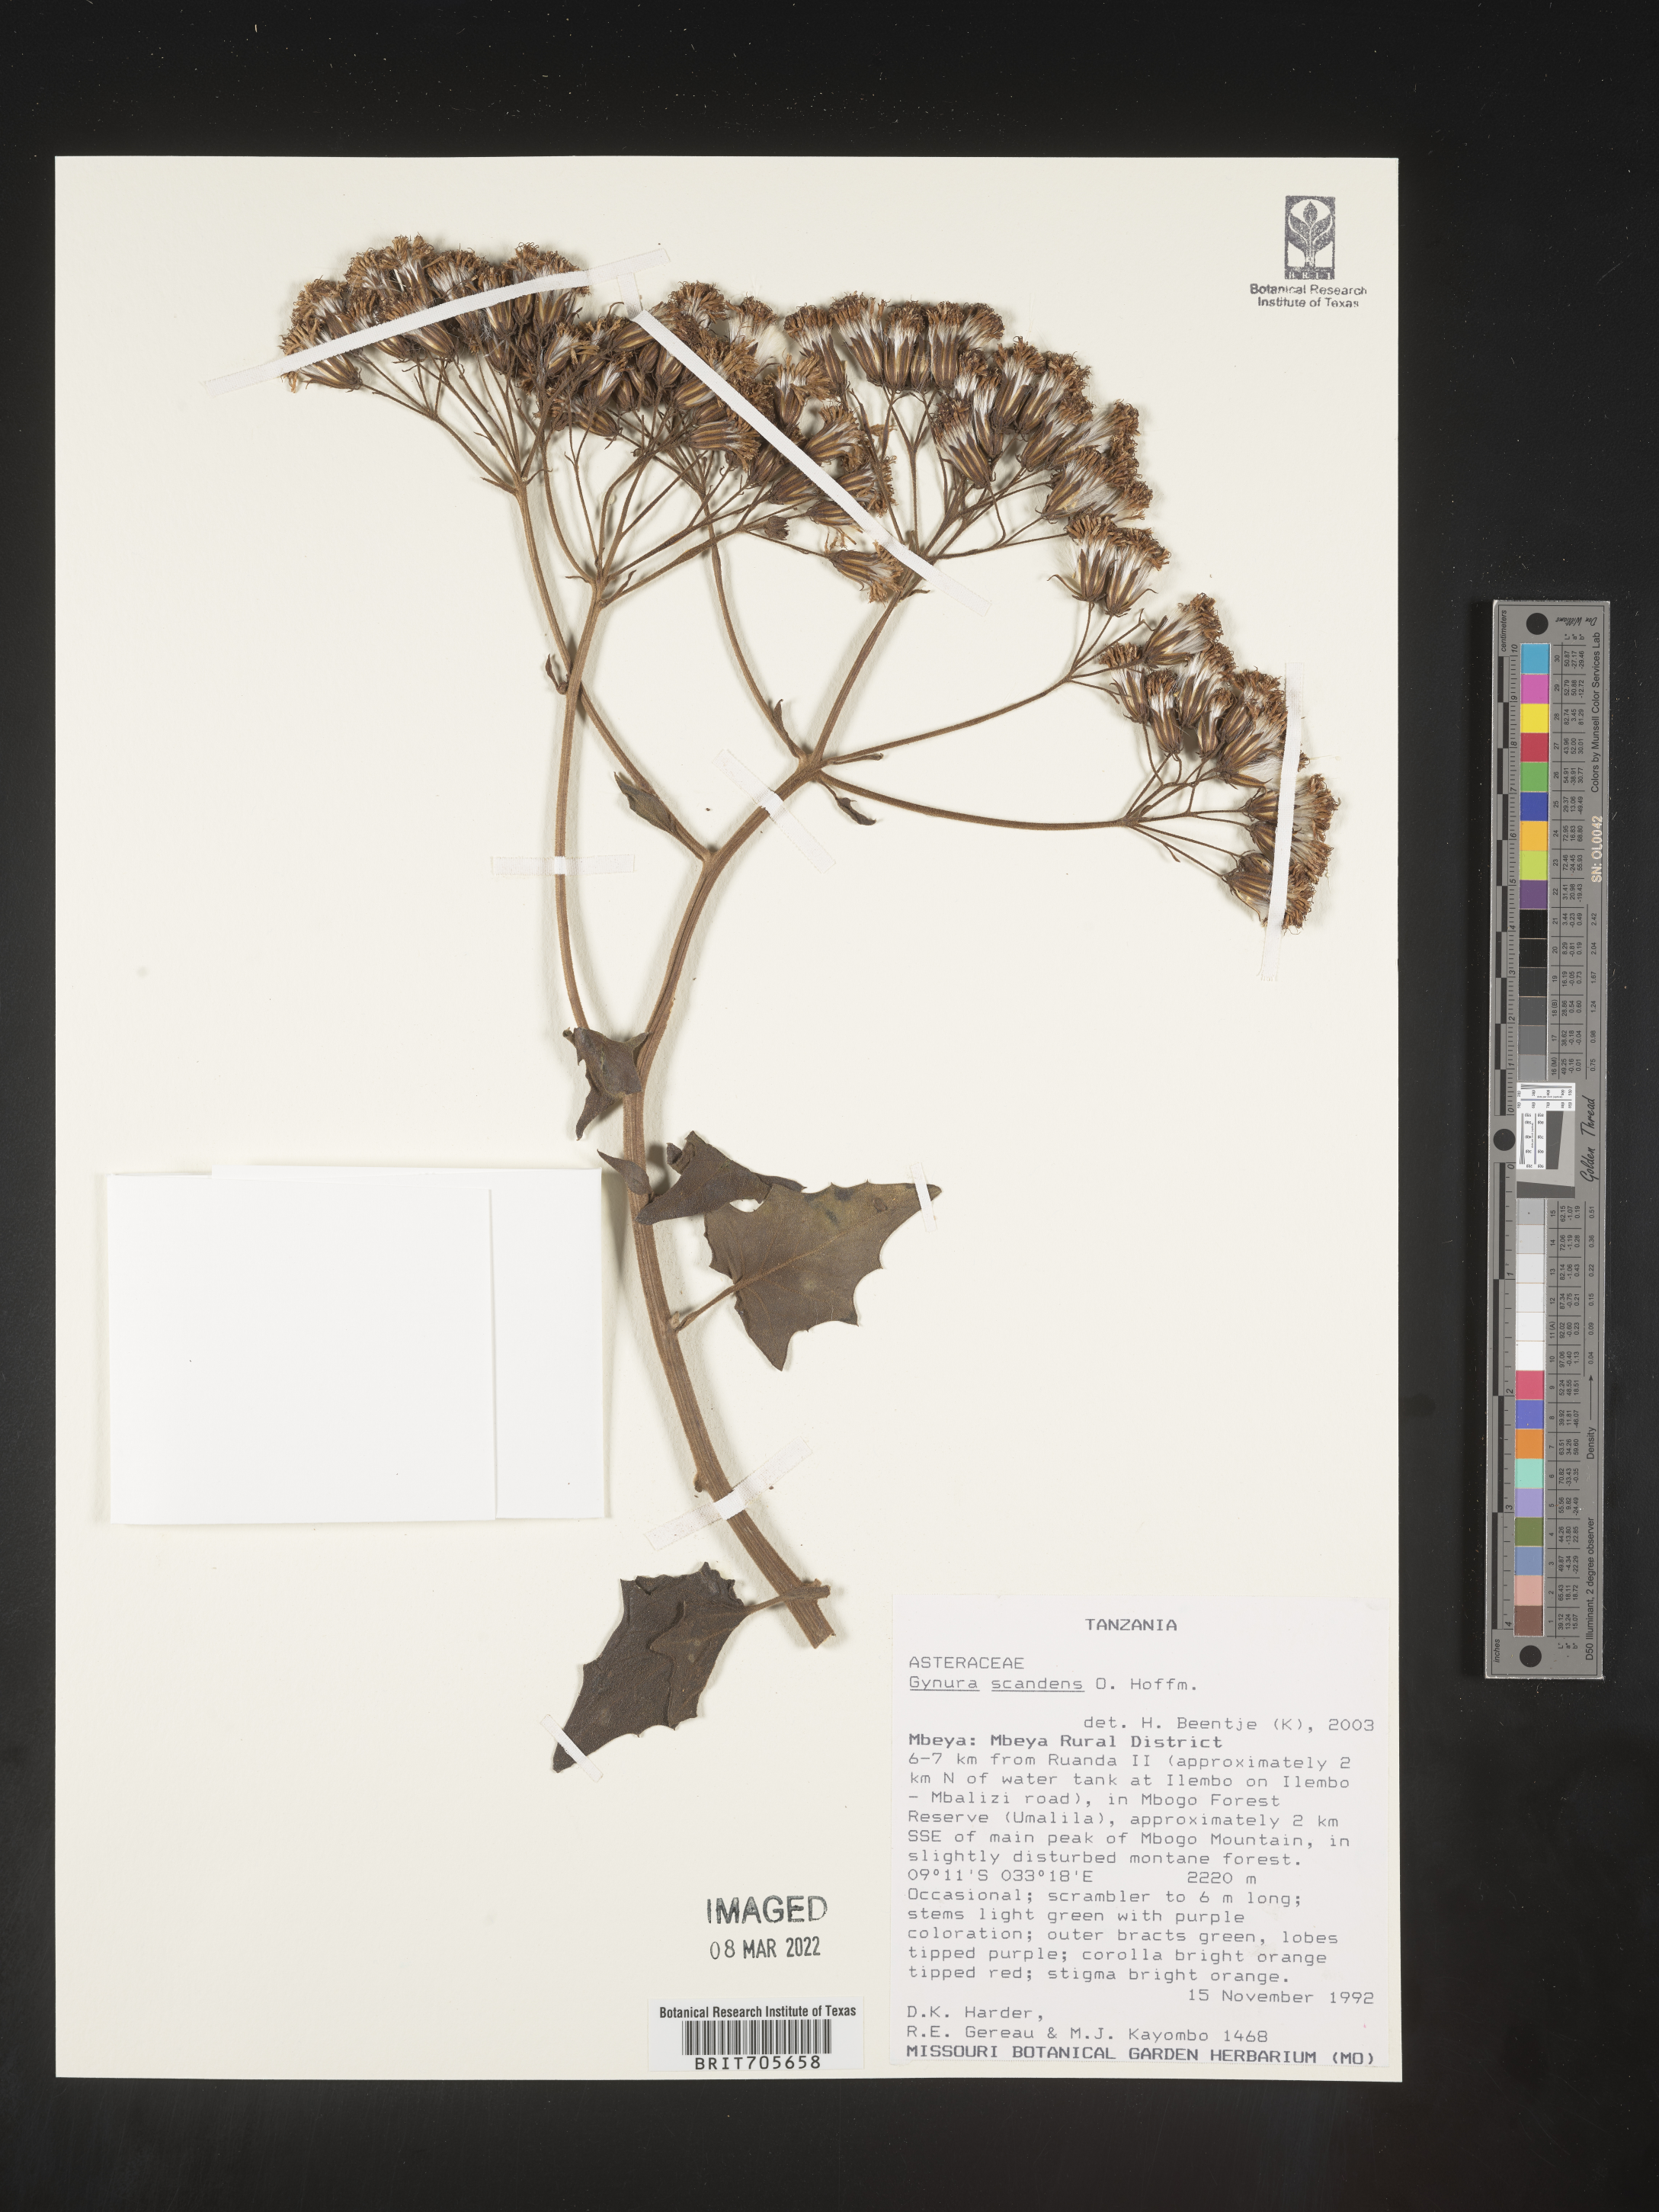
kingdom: Plantae
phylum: Tracheophyta
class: Magnoliopsida
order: Asterales
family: Asteraceae
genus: Gynura
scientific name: Gynura
